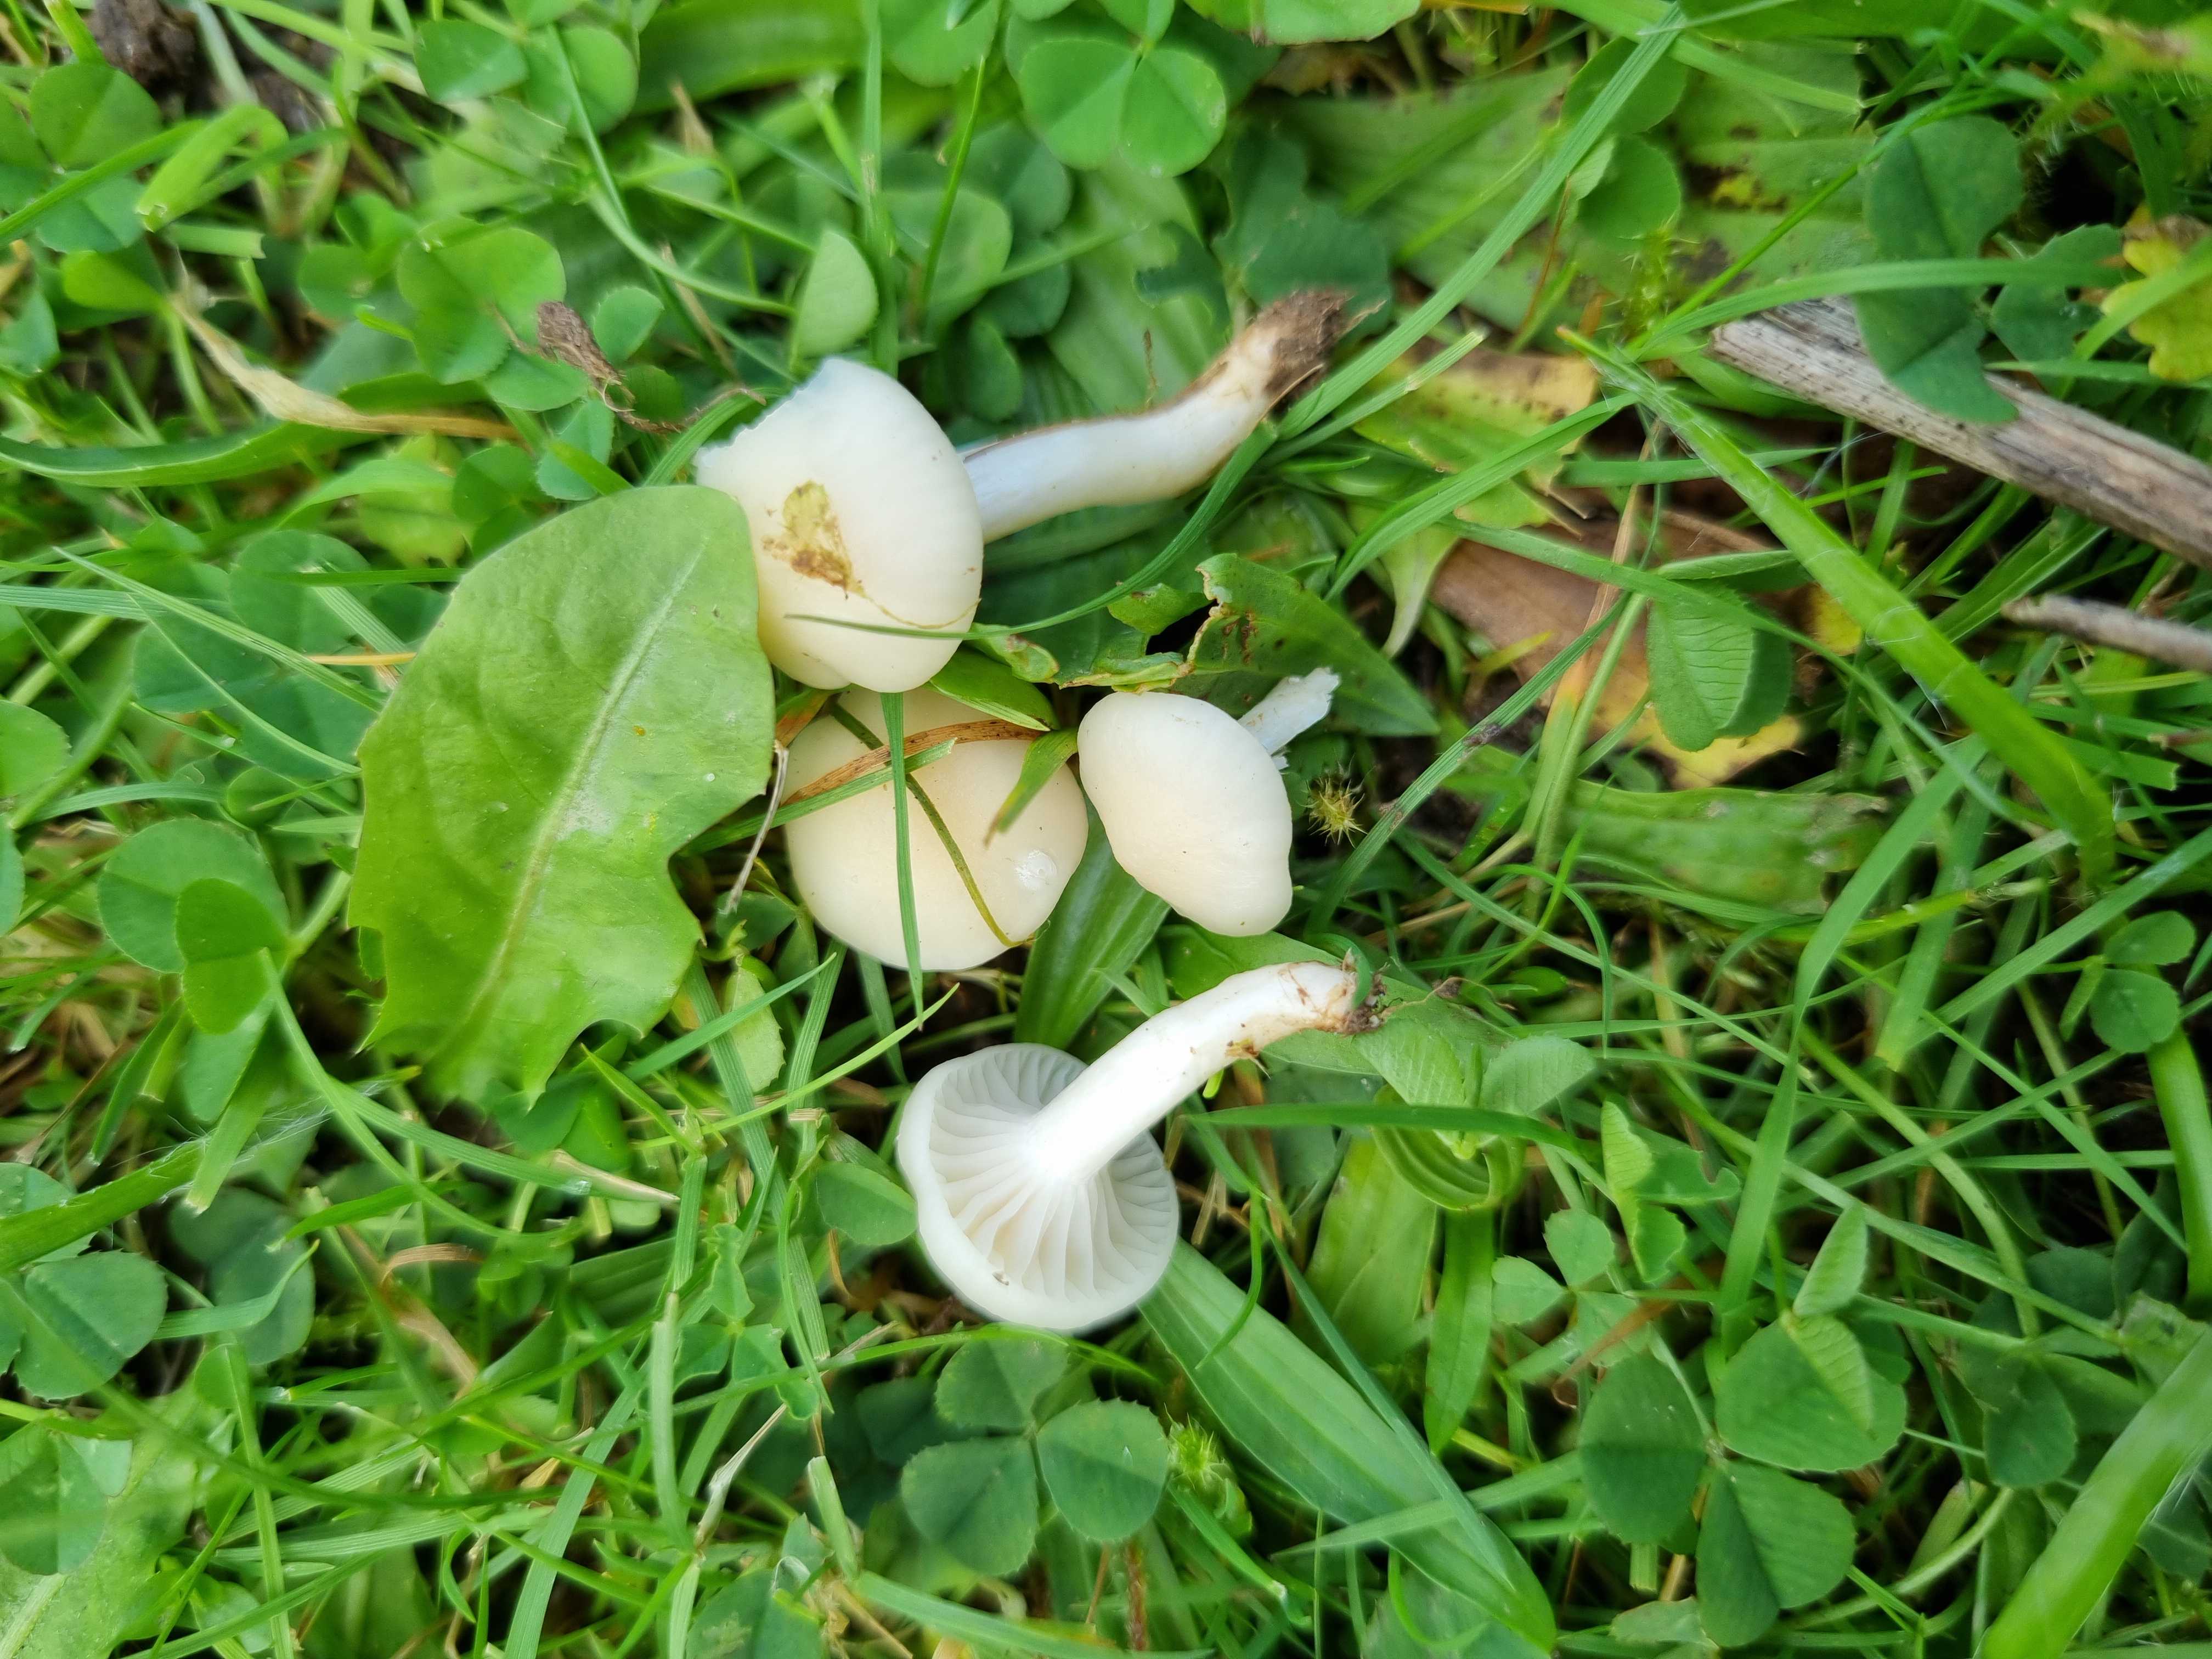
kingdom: Fungi
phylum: Basidiomycota
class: Agaricomycetes
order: Agaricales
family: Hygrophoraceae
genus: Cuphophyllus
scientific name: Cuphophyllus russocoriaceus
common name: ruslæder-vokshat
